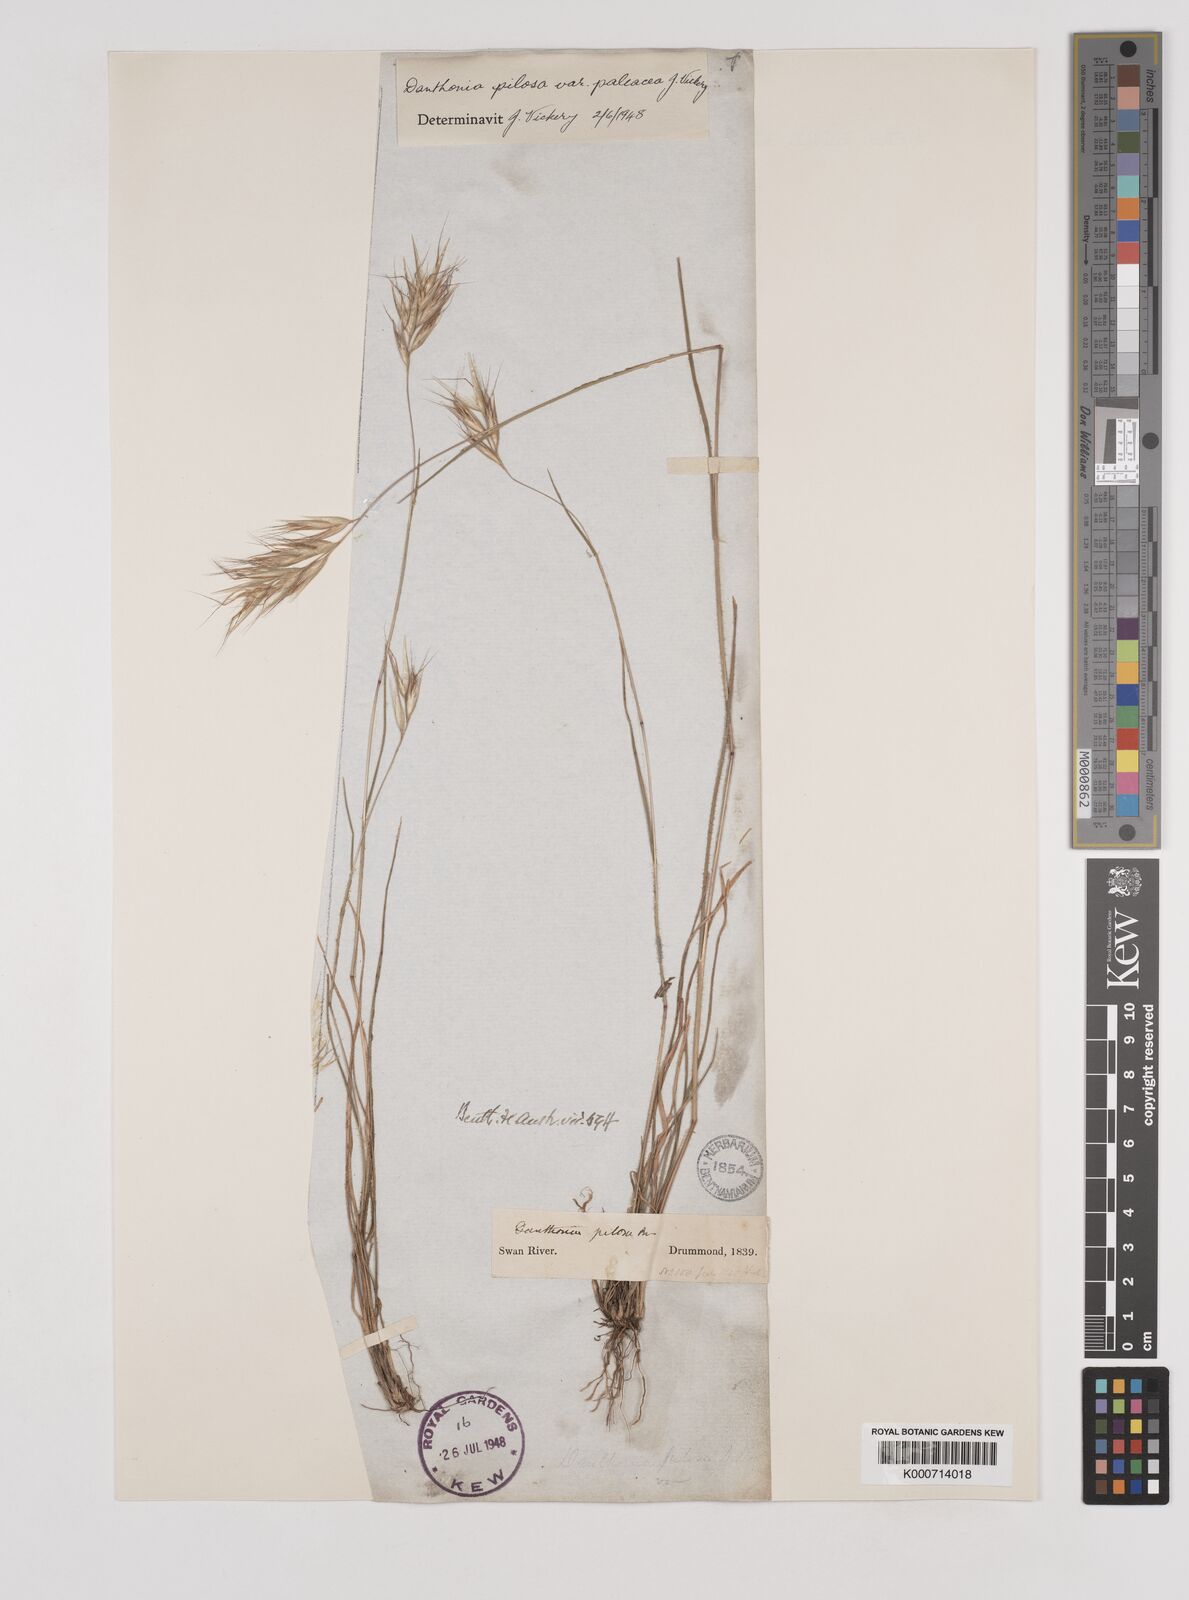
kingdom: Plantae
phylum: Tracheophyta
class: Liliopsida
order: Poales
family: Poaceae
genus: Rytidosperma
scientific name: Rytidosperma pilosum
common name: Hairy wallaby grass
